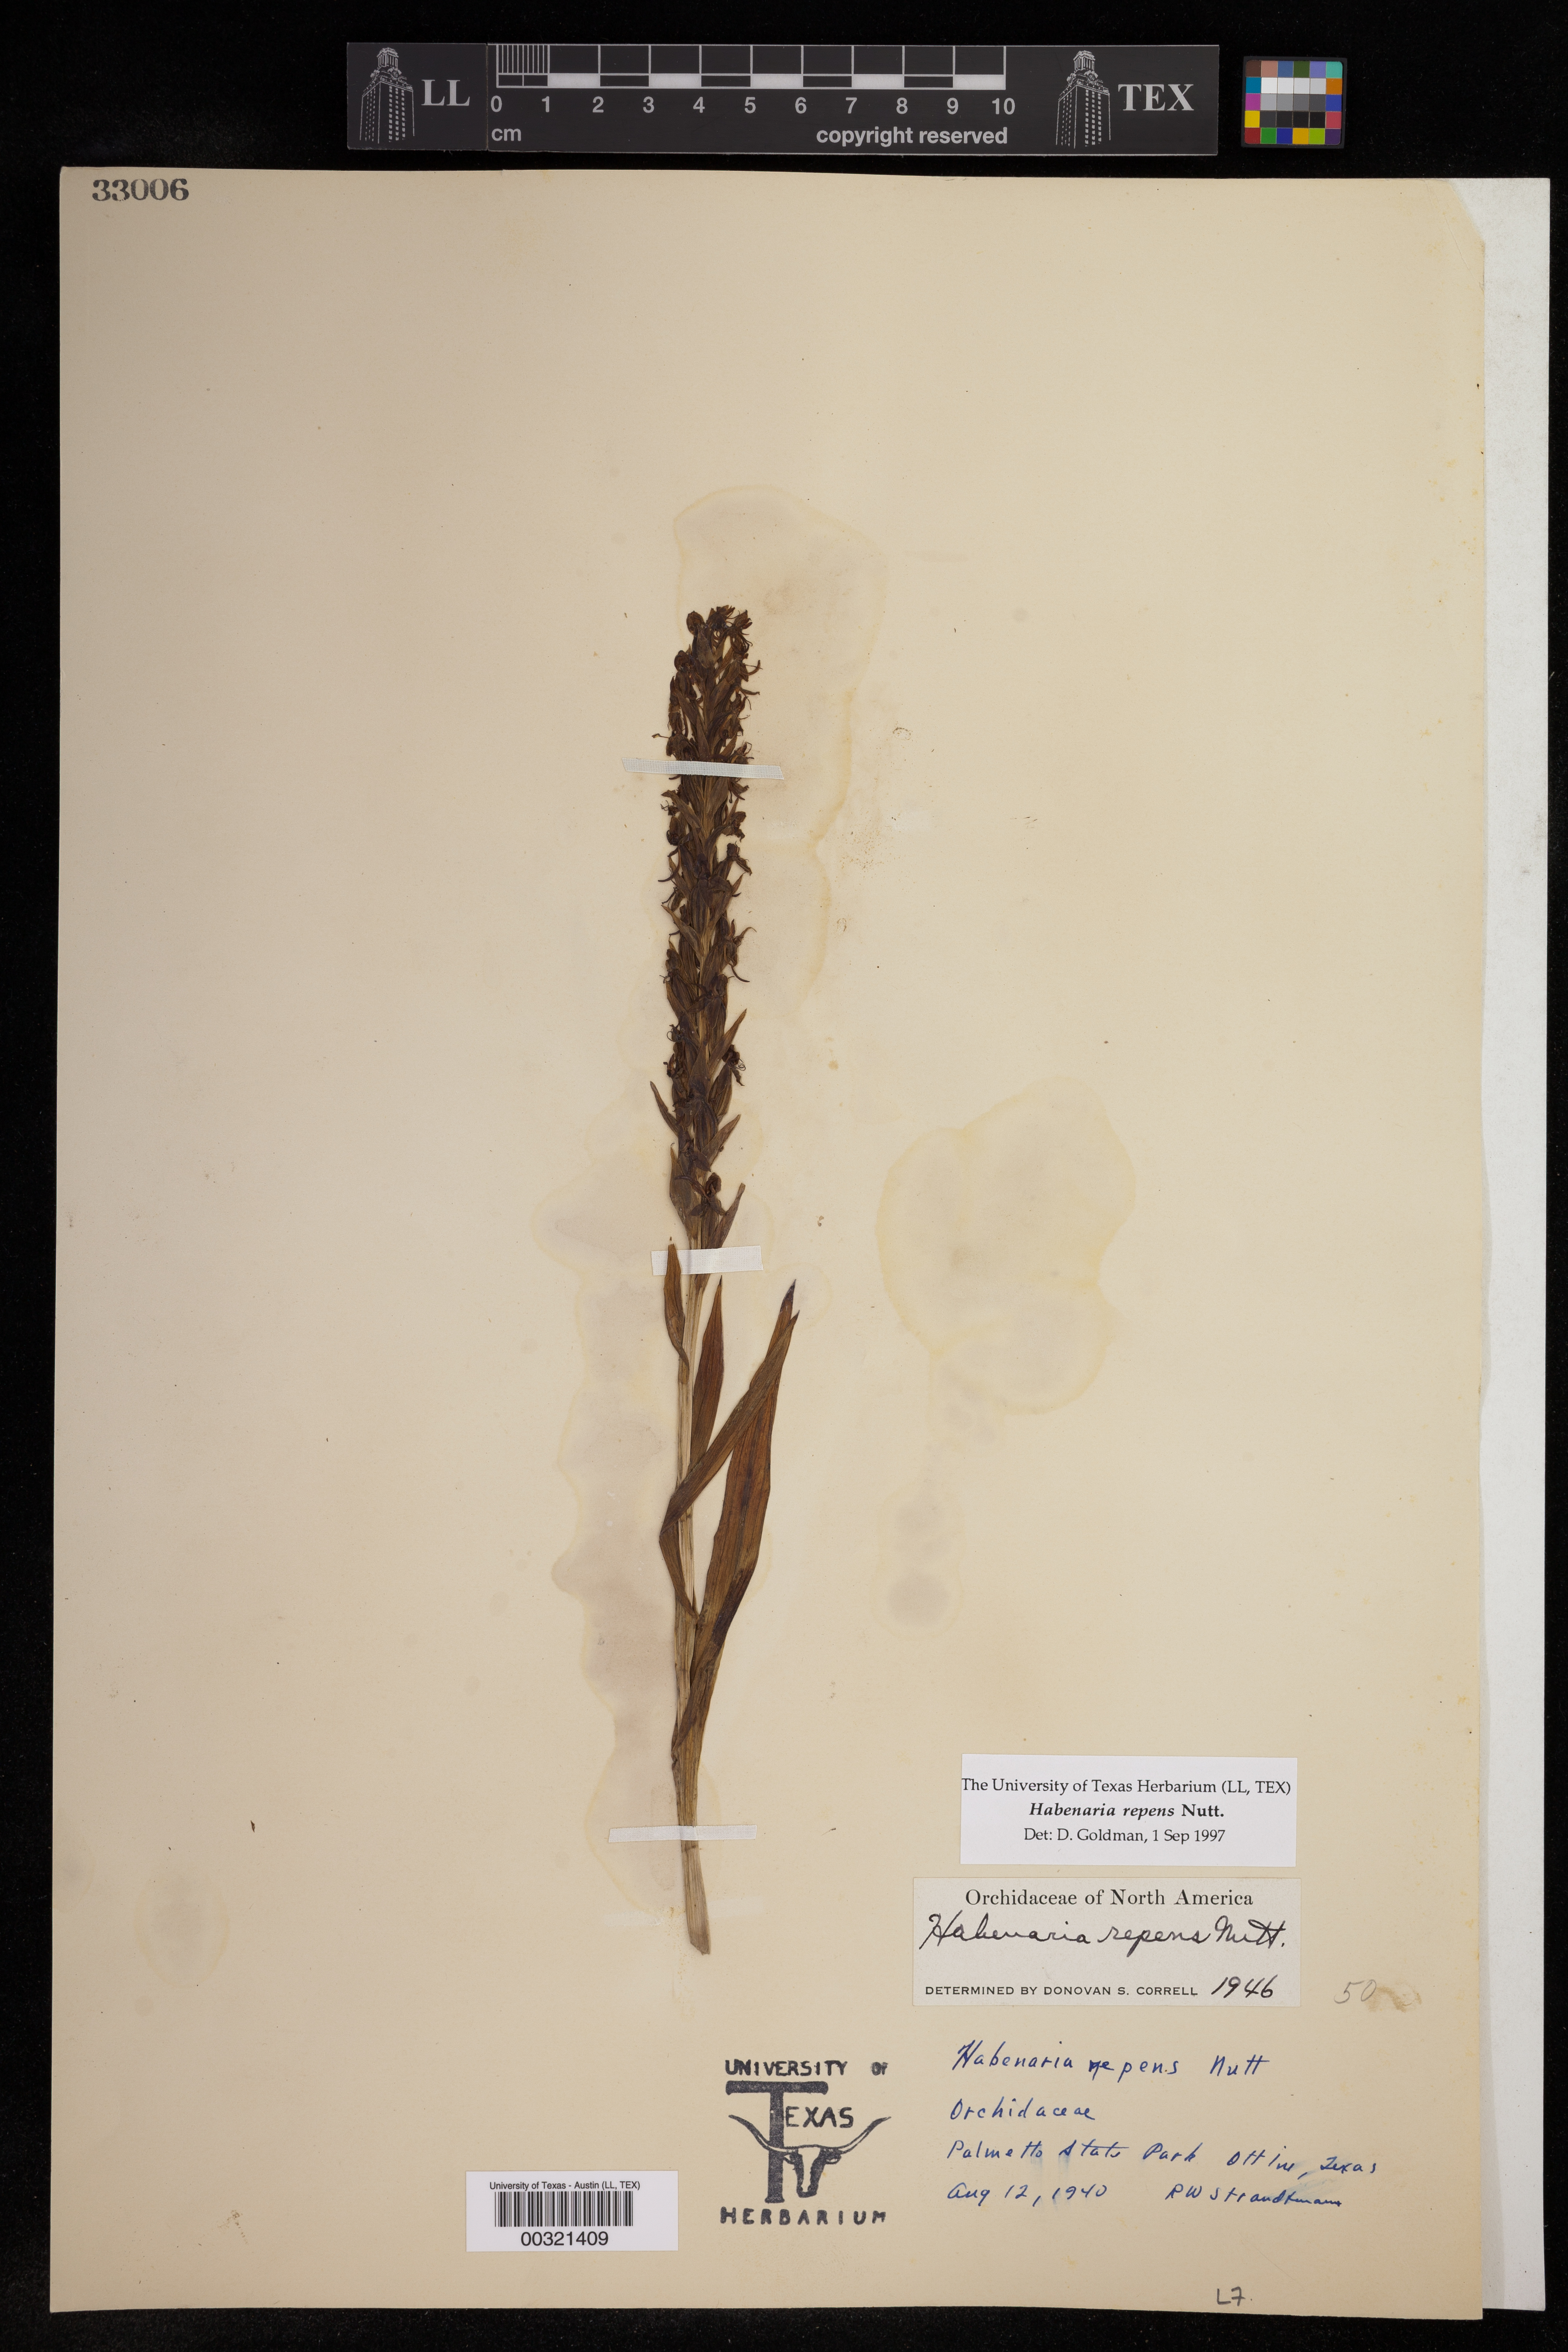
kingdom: Plantae
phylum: Tracheophyta
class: Liliopsida
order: Asparagales
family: Orchidaceae
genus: Habenaria
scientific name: Habenaria repens
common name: Water orchid
